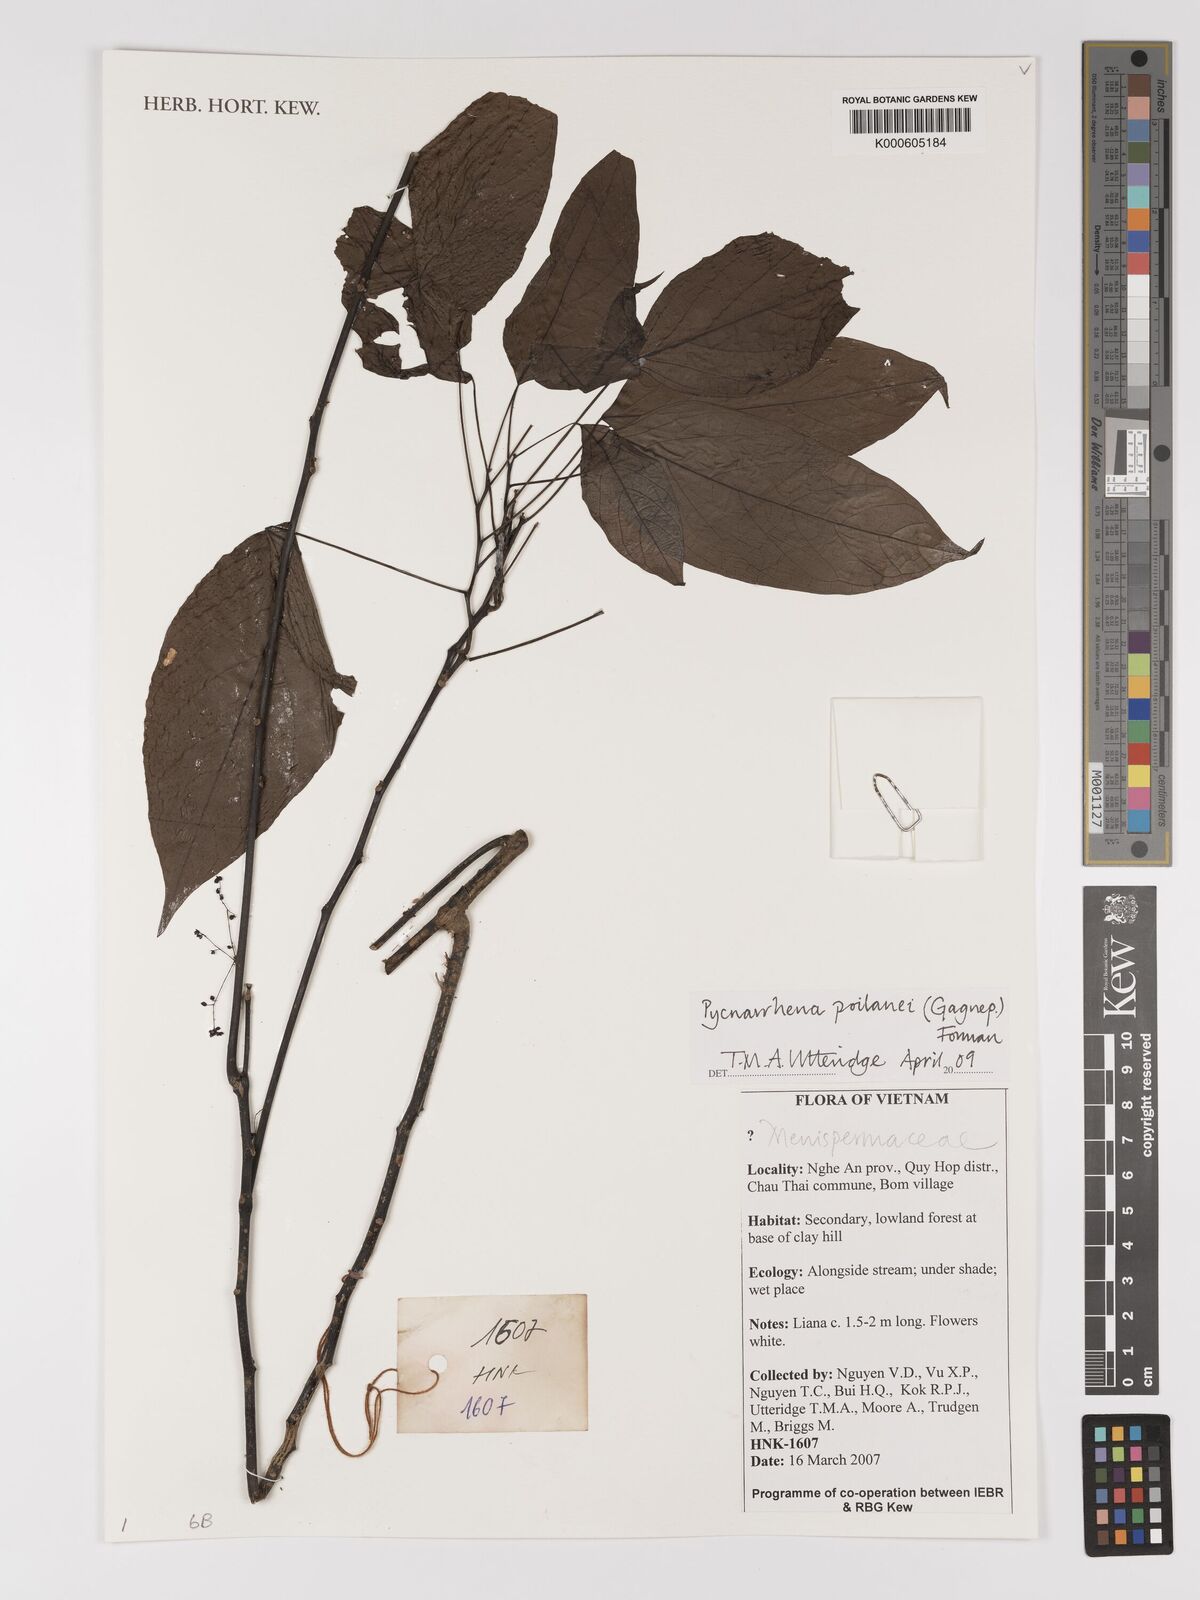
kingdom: Plantae
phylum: Tracheophyta
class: Magnoliopsida
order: Ranunculales
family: Menispermaceae
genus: Pycnarrhena
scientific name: Pycnarrhena poilanei
